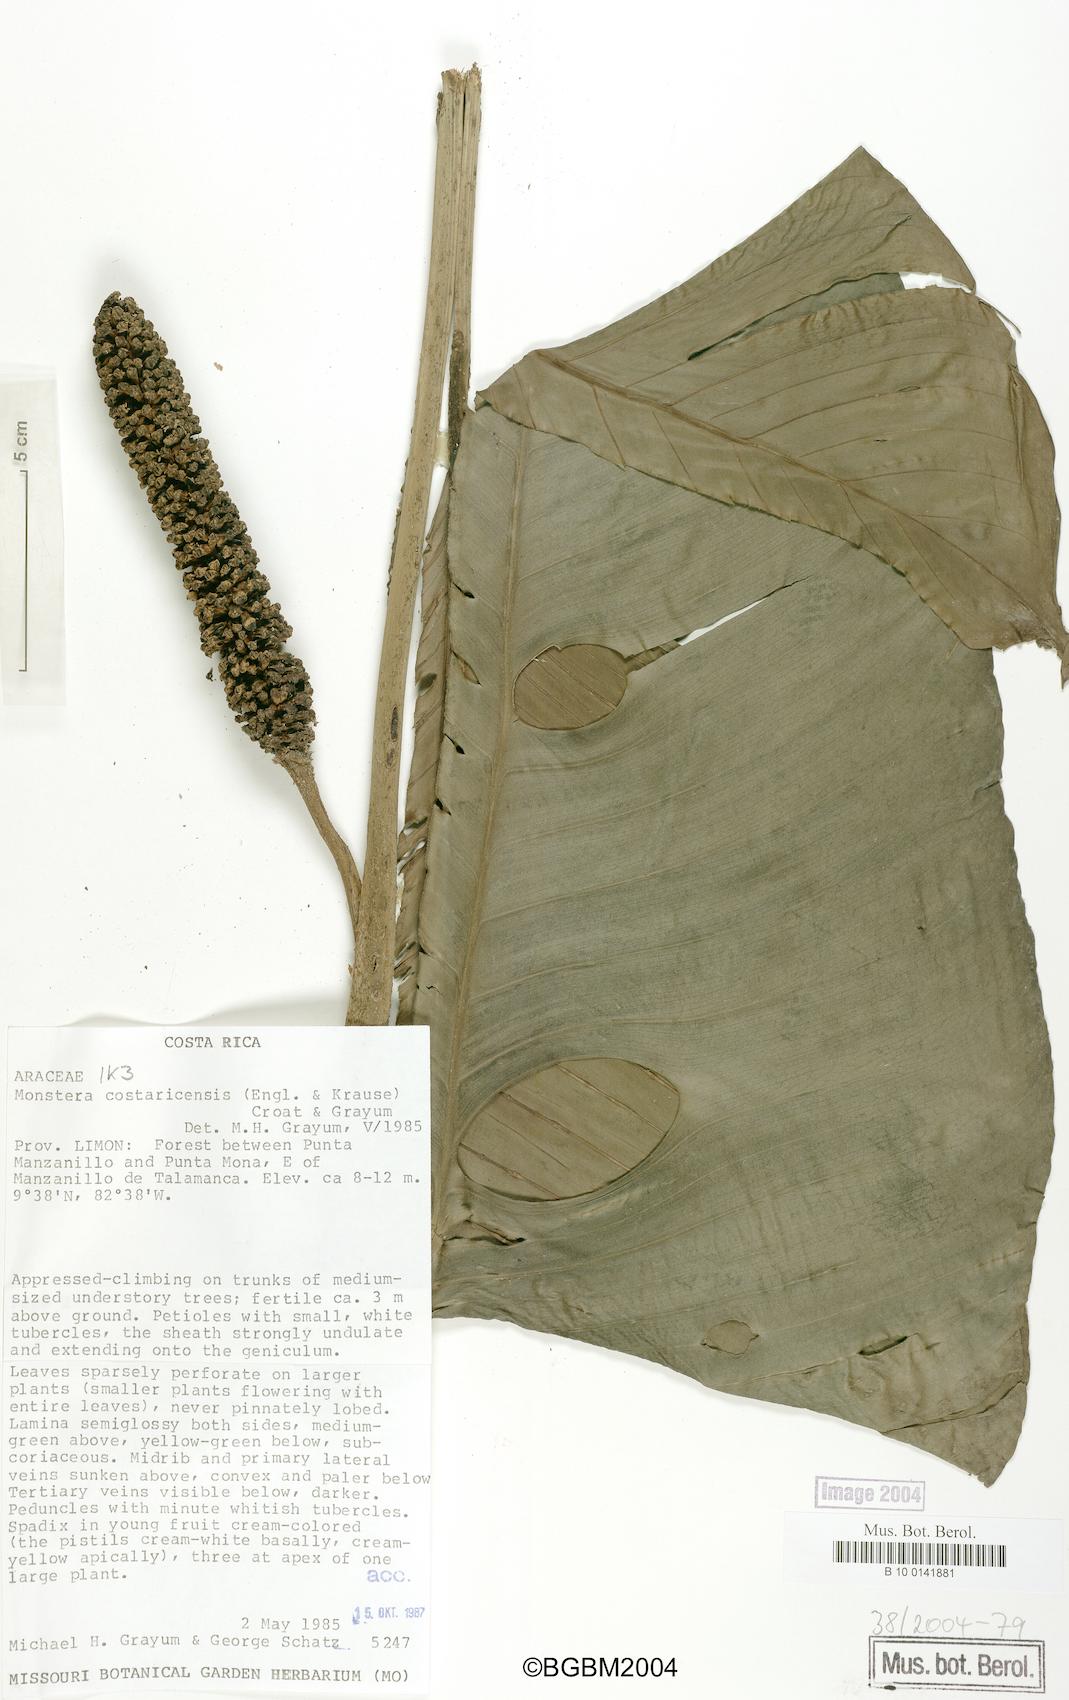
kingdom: Plantae
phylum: Tracheophyta
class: Liliopsida
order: Alismatales
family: Araceae
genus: Monstera
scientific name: Monstera costaricensis
